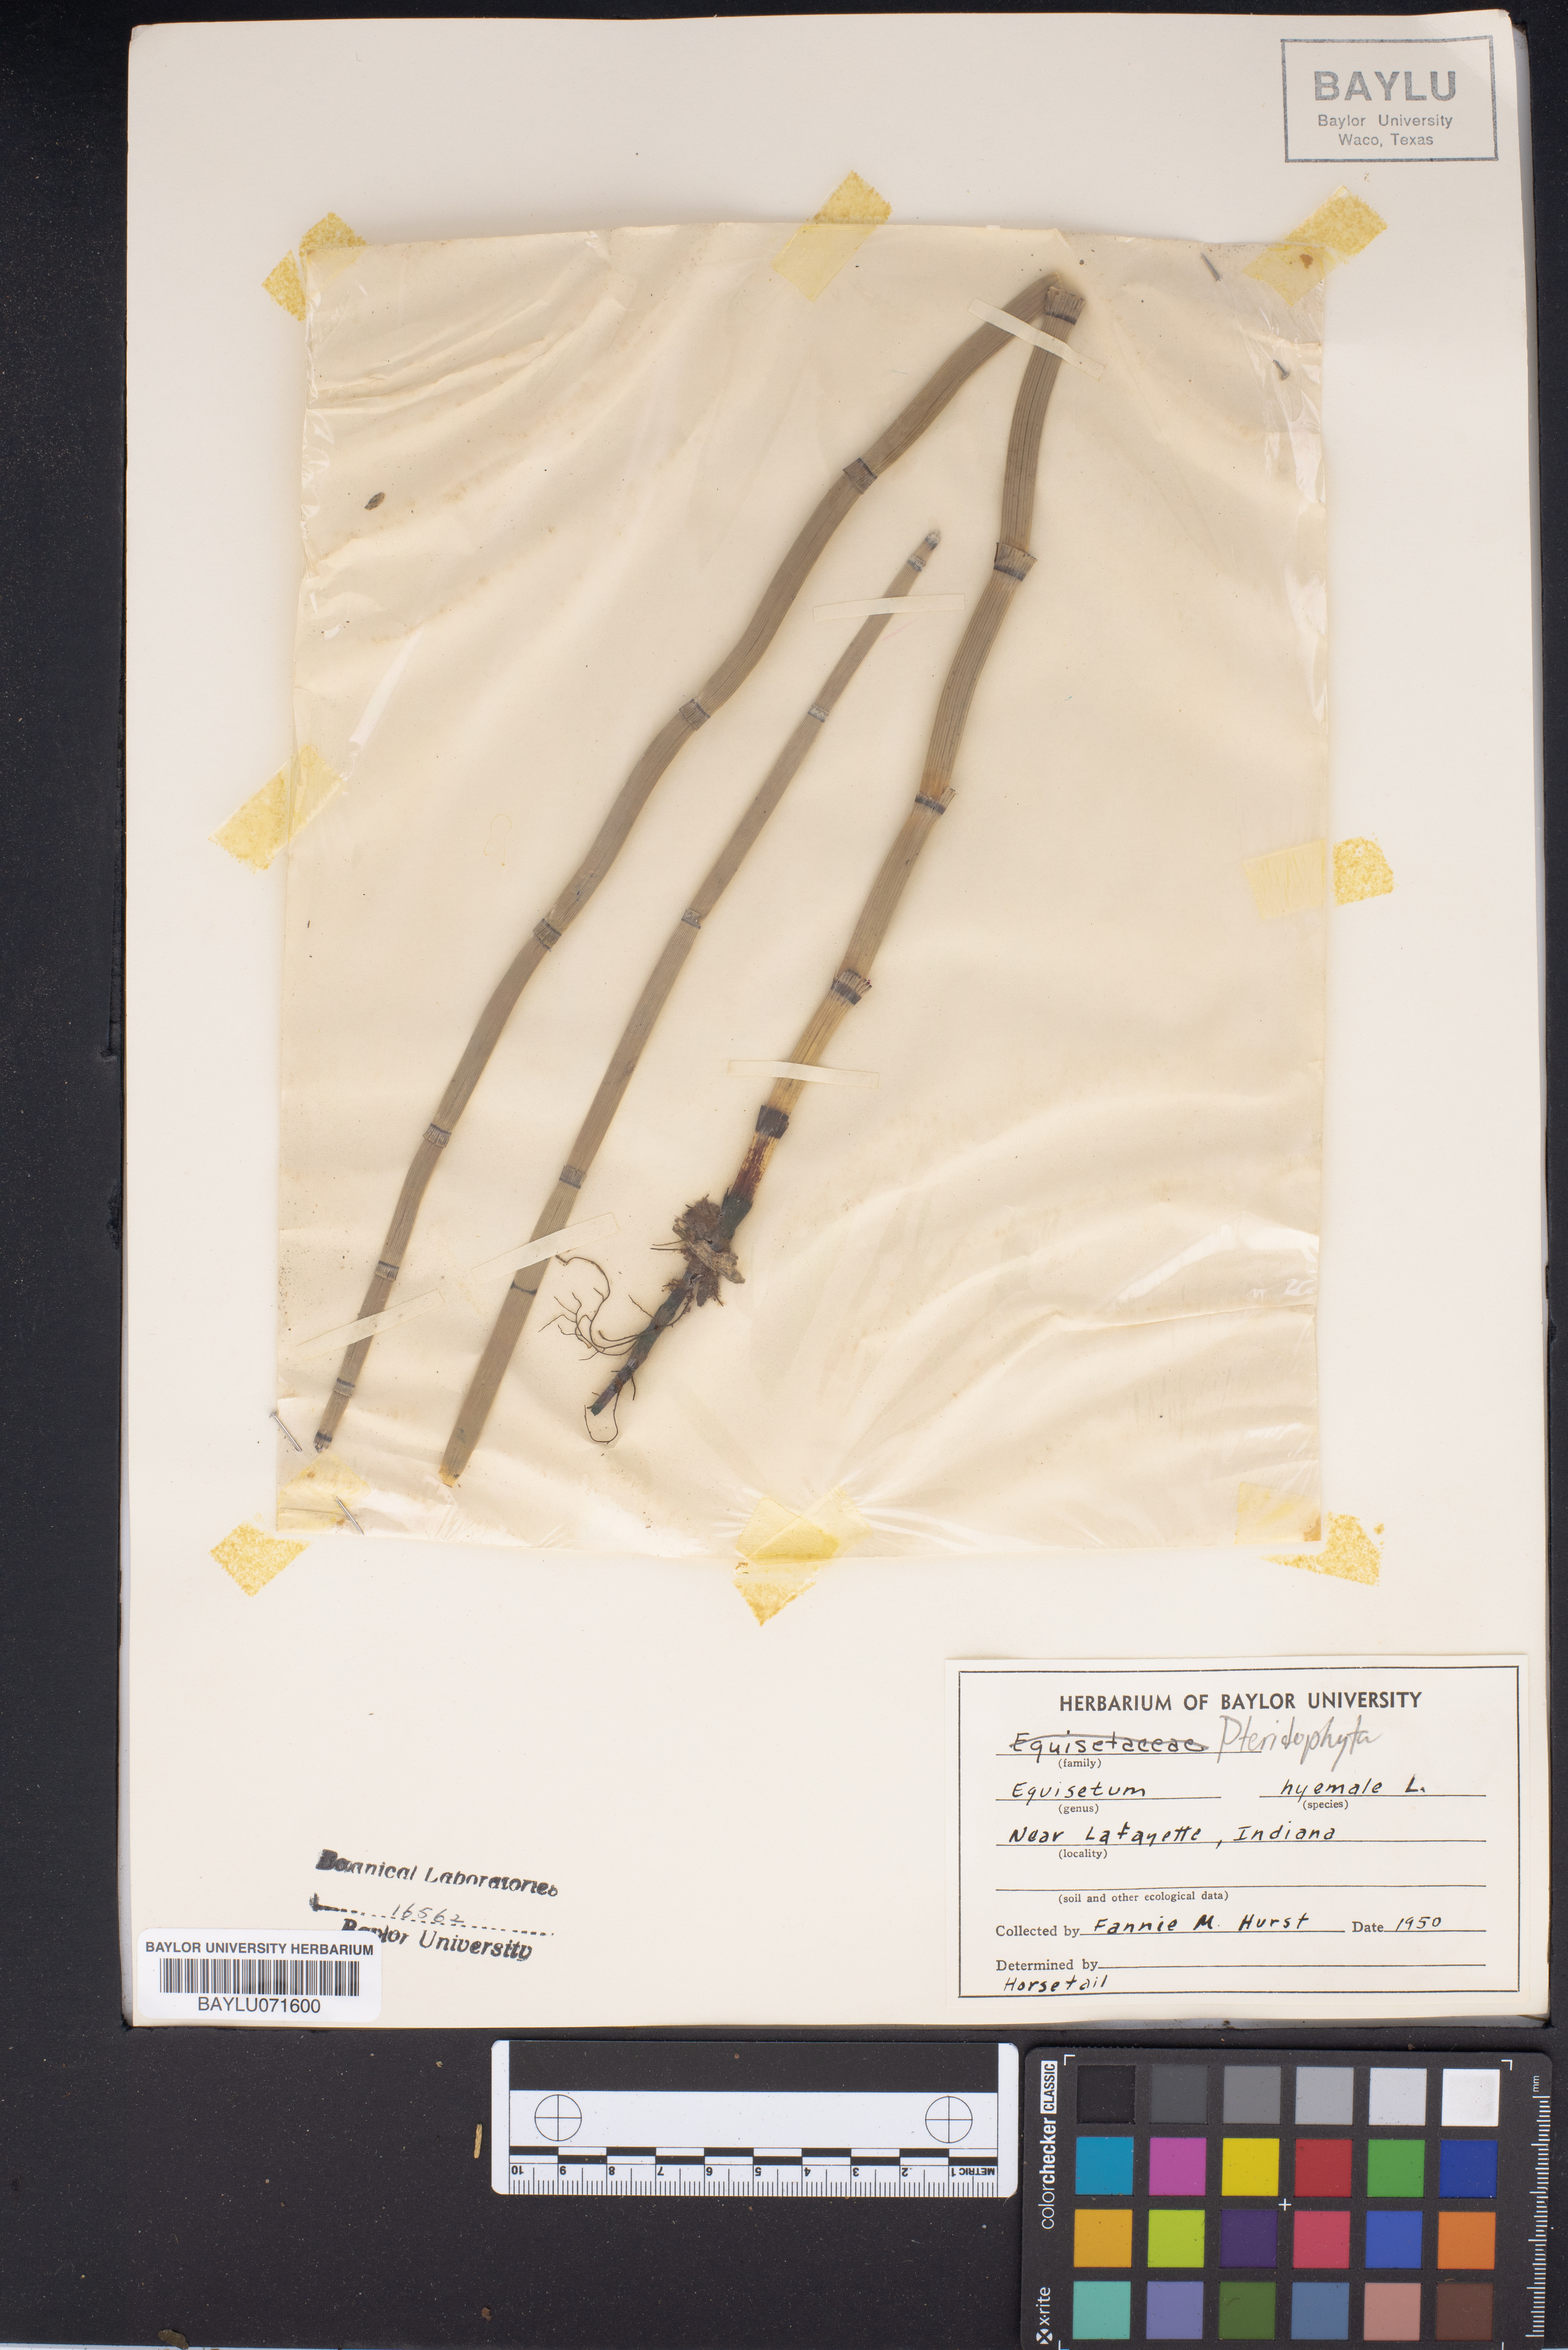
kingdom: Plantae
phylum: Tracheophyta
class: Polypodiopsida
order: Equisetales
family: Equisetaceae
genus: Equisetum
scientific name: Equisetum hyemale
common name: Rough horsetail
